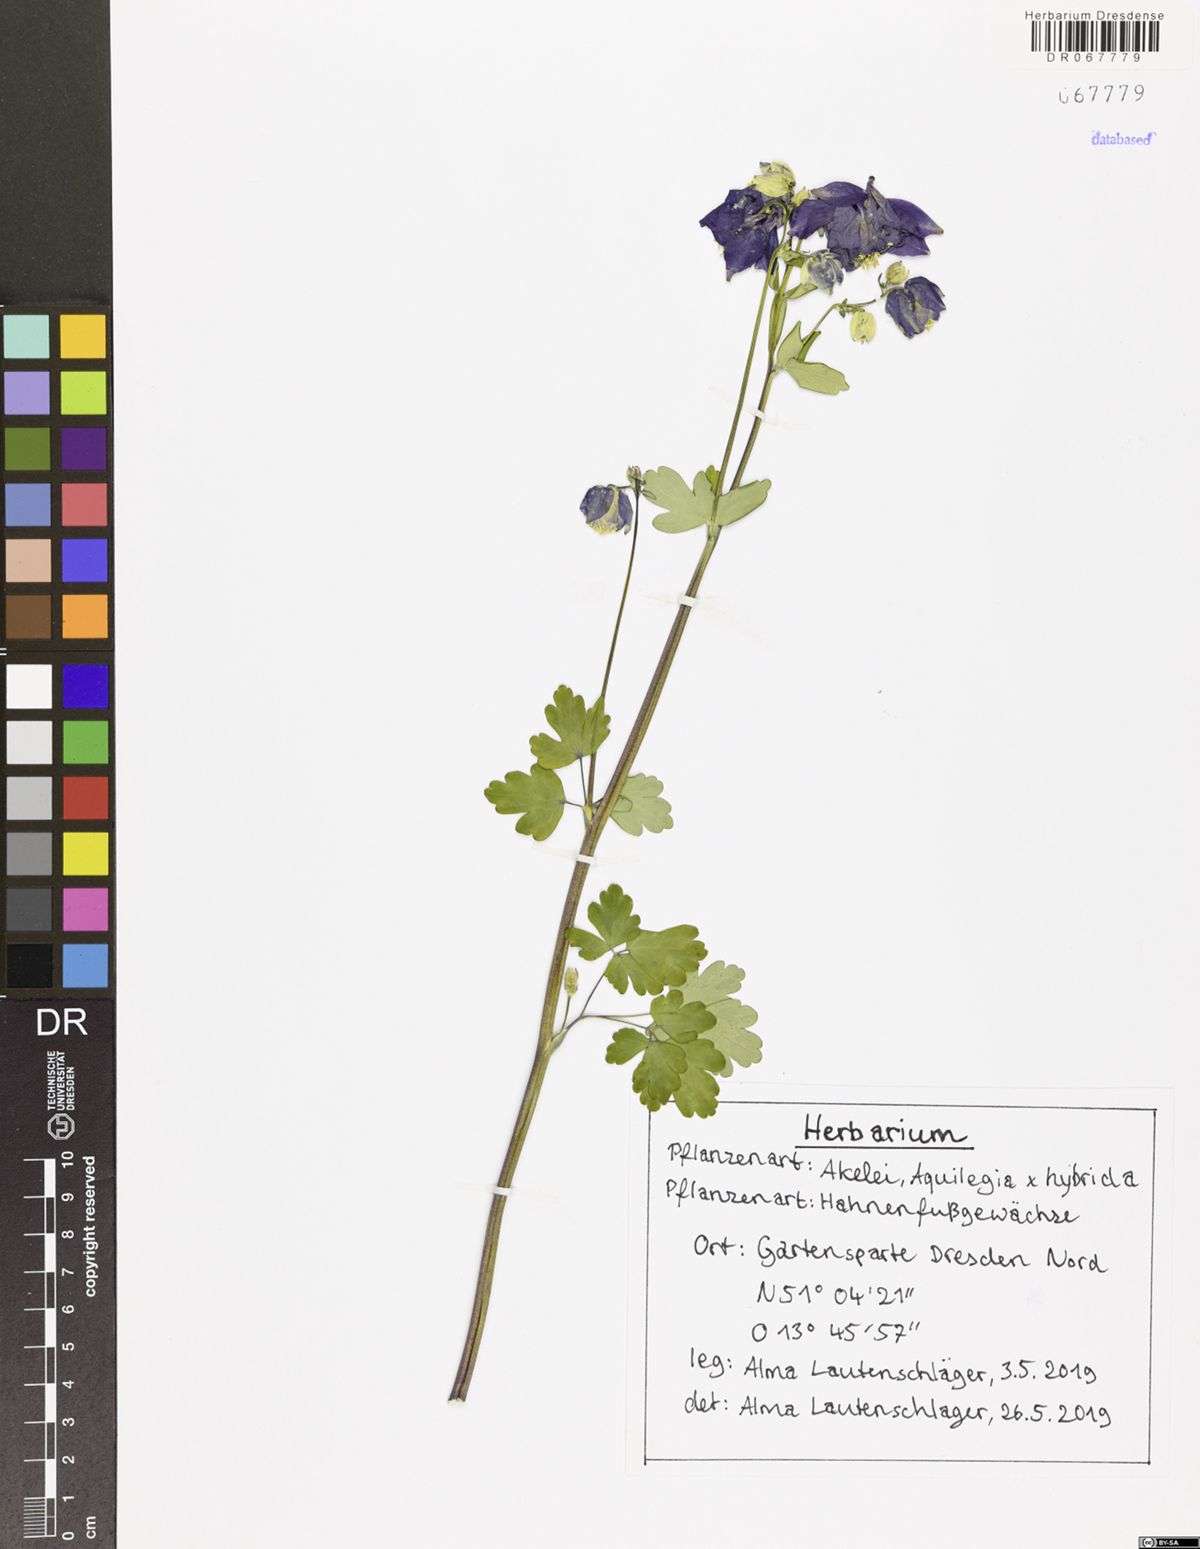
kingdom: Plantae
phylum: Tracheophyta
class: Magnoliopsida
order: Ranunculales
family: Ranunculaceae
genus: Aquilegia
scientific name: Aquilegia
